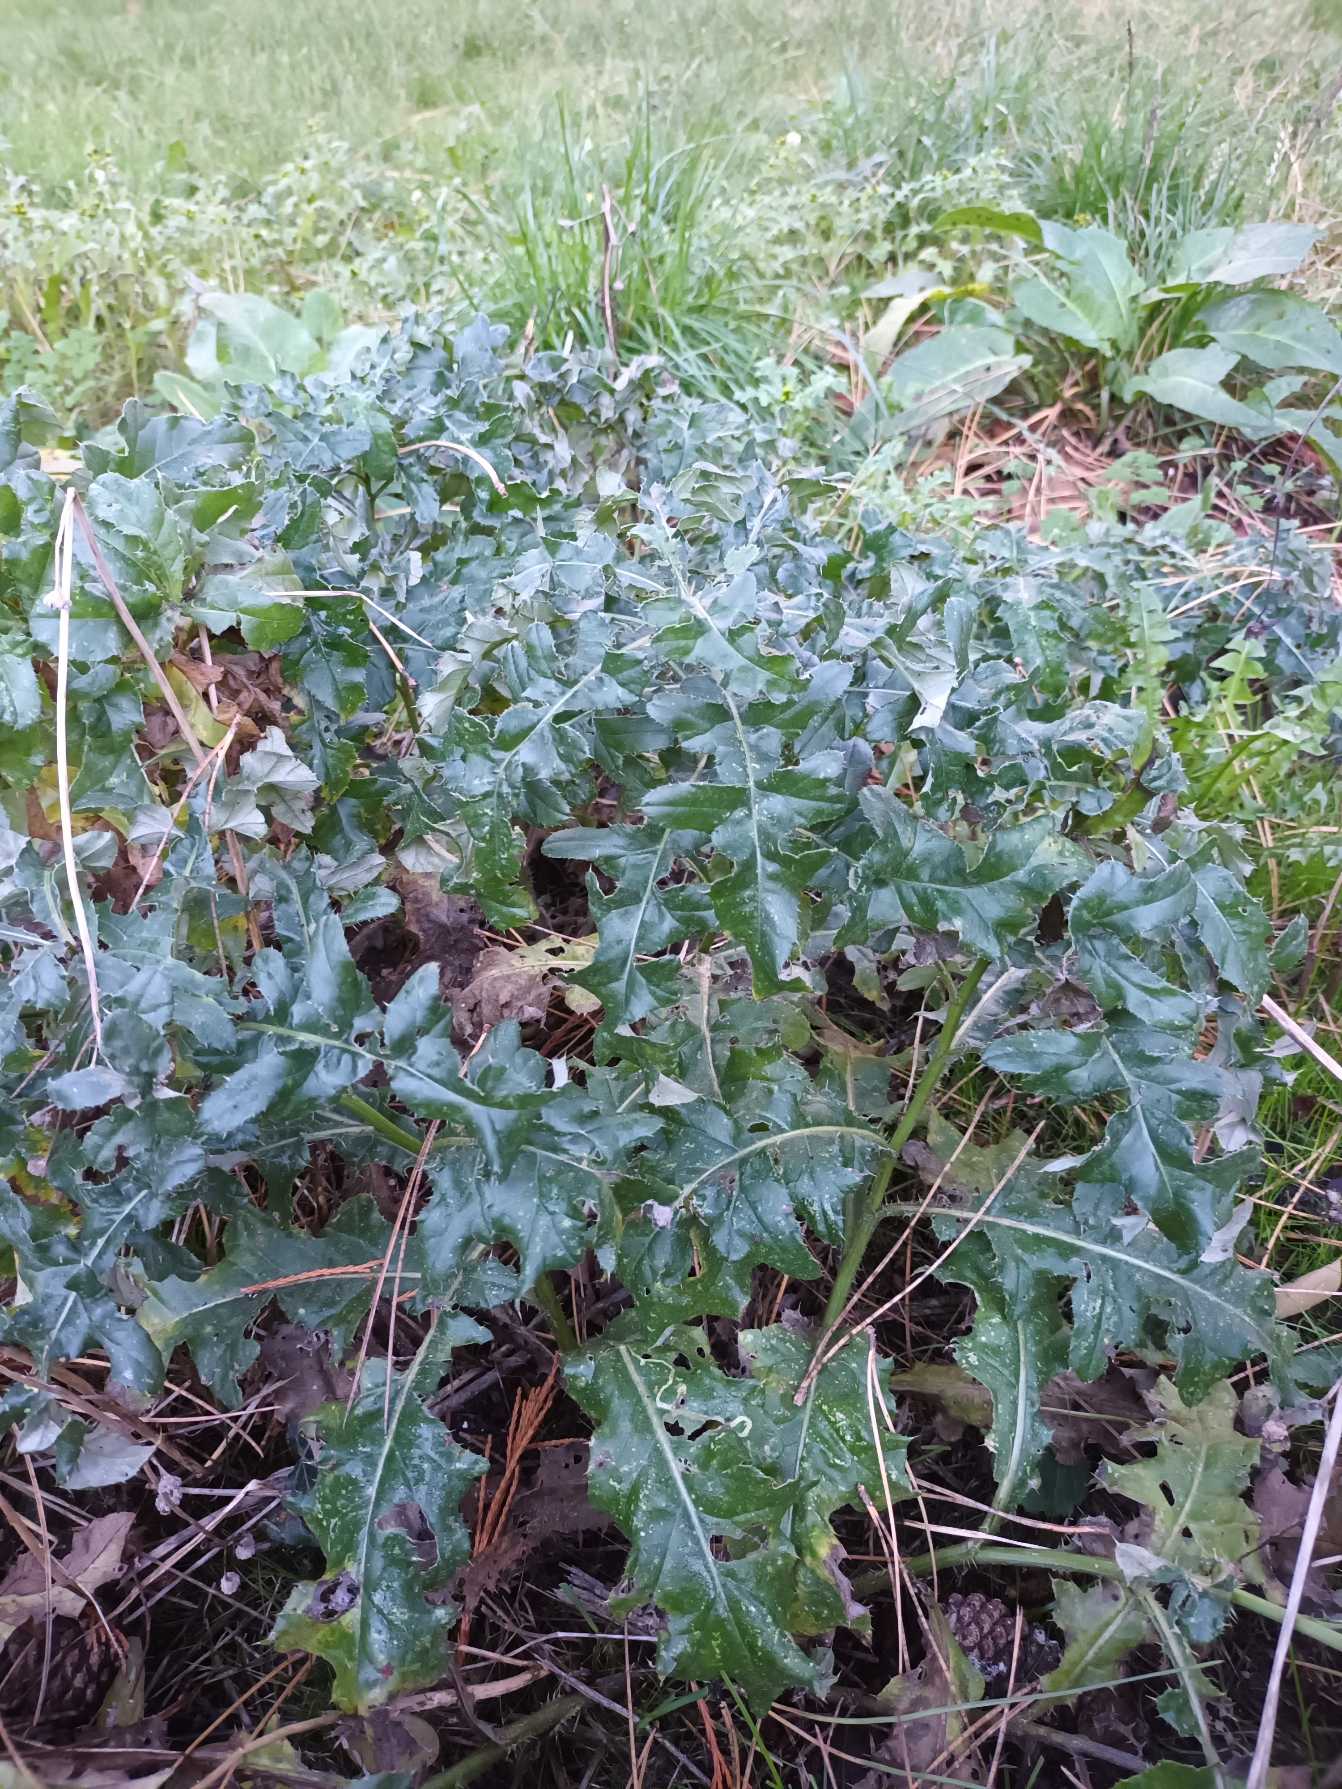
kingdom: Plantae
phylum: Tracheophyta
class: Magnoliopsida
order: Asterales
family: Asteraceae
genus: Cirsium
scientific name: Cirsium arvense
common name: Ager-tidsel
